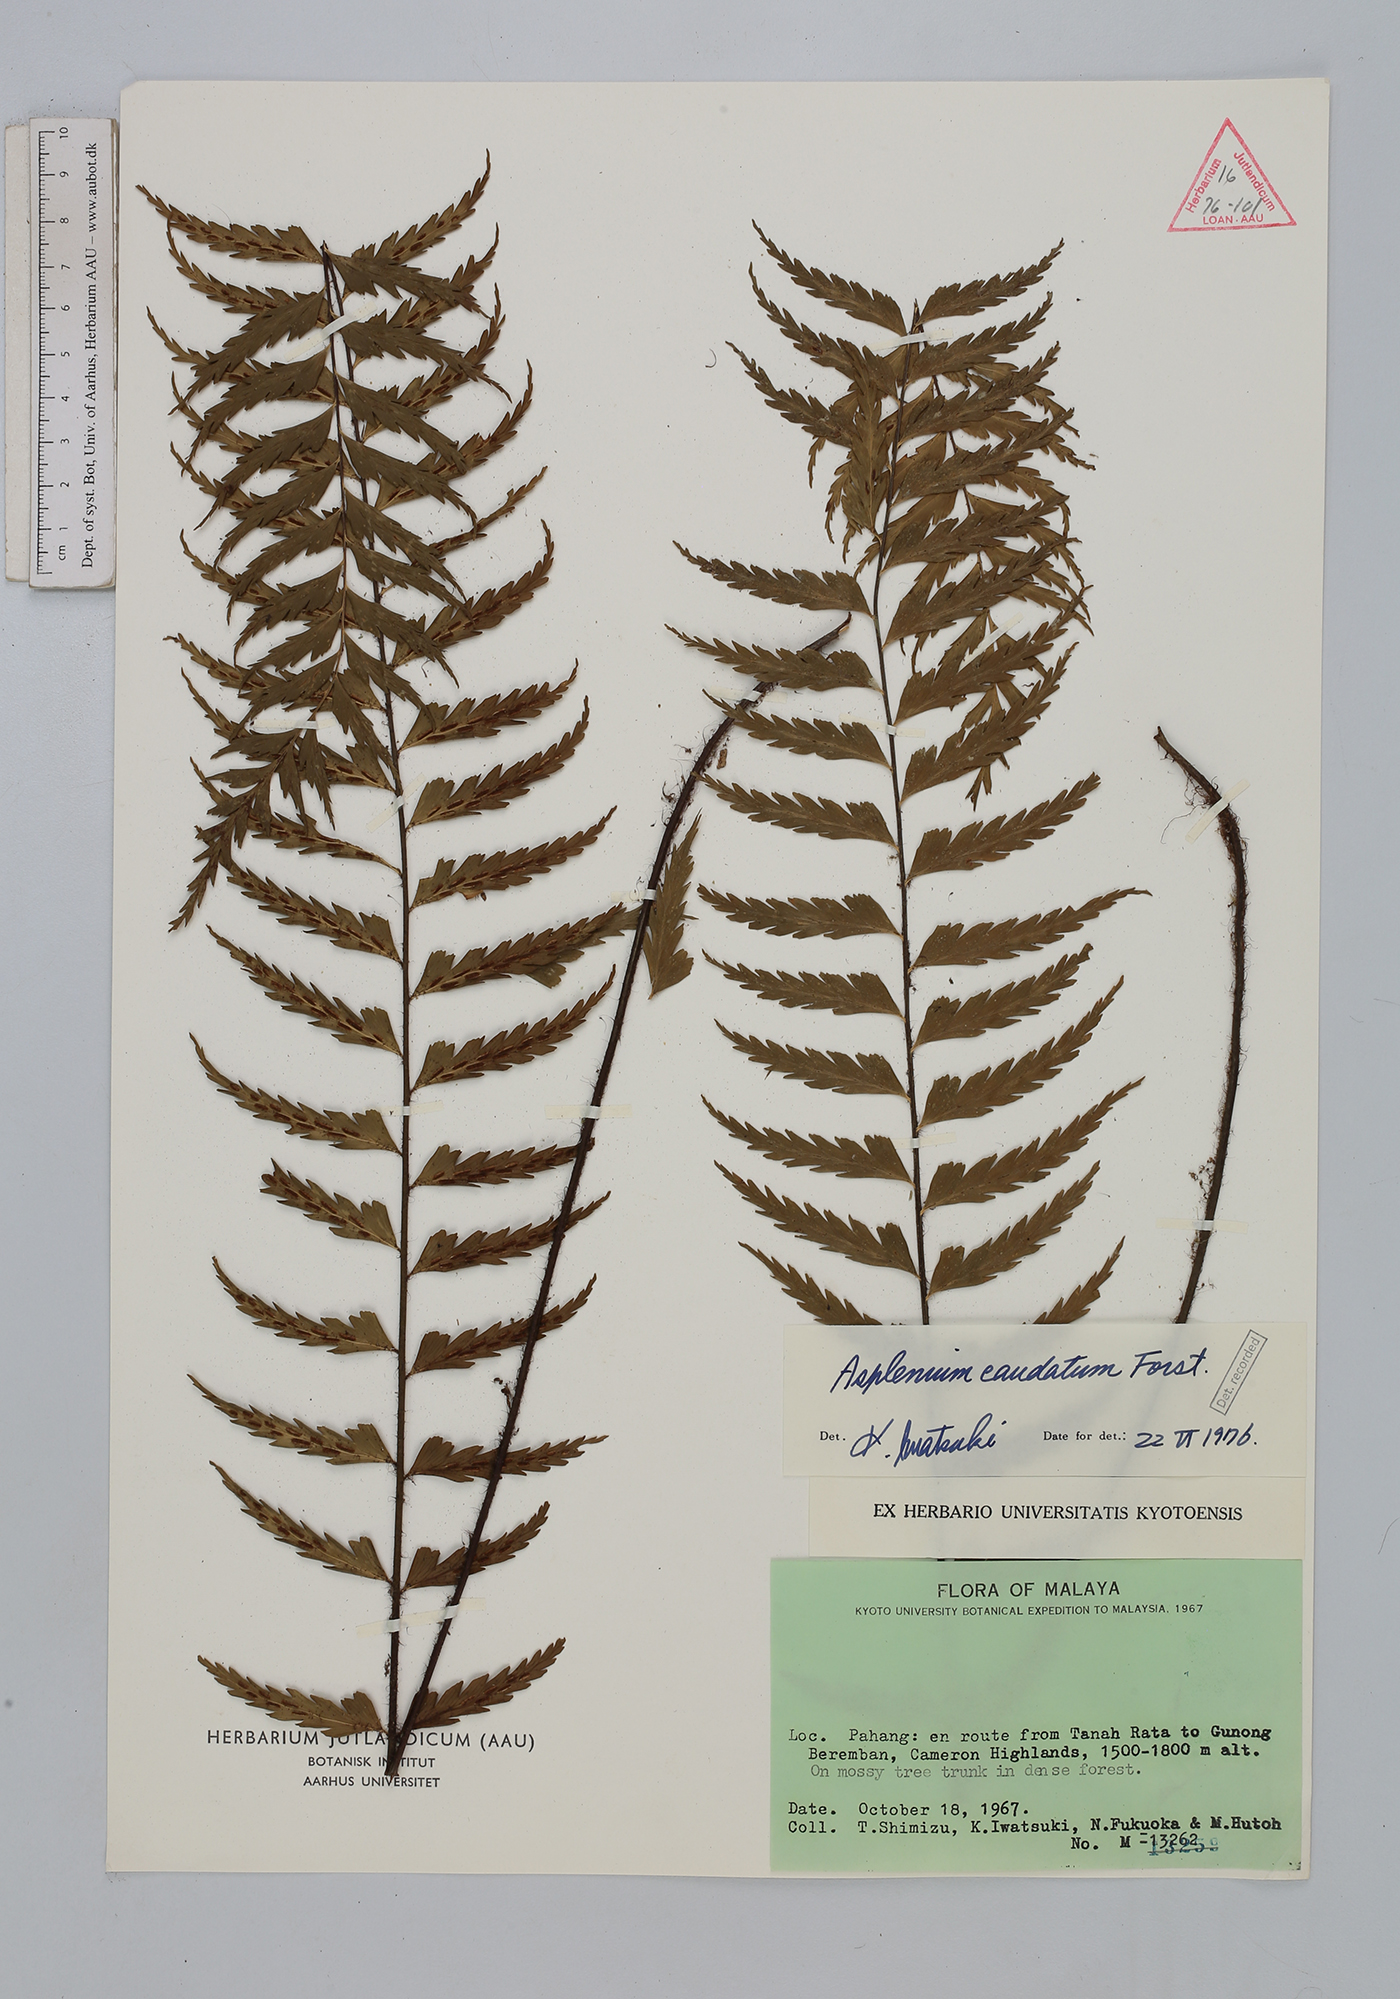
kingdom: Plantae
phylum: Tracheophyta
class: Polypodiopsida
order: Polypodiales
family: Aspleniaceae
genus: Asplenium
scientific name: Asplenium caudatum
